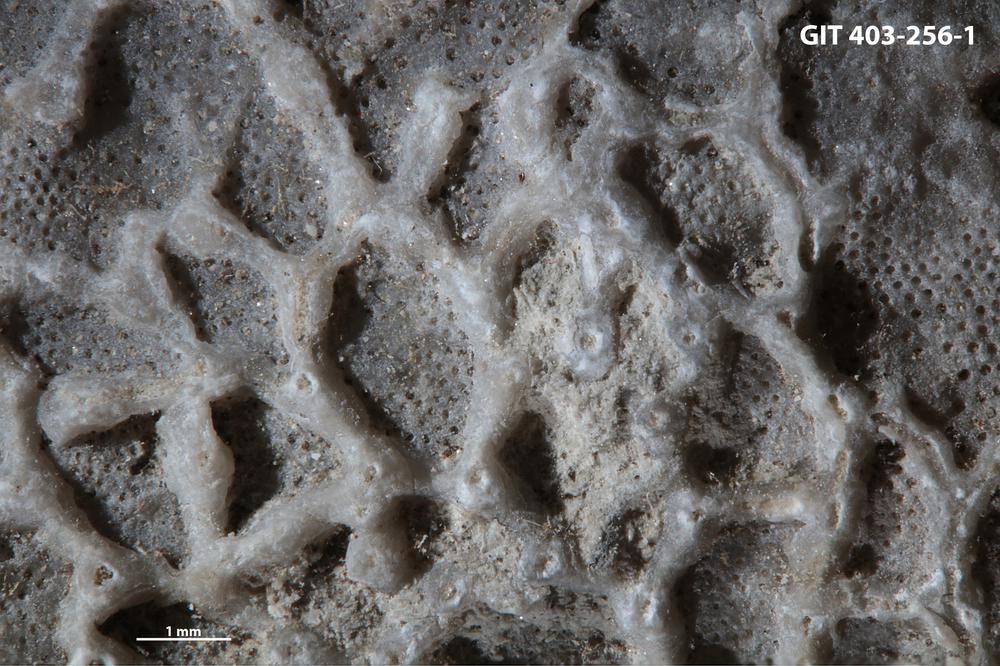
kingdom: Animalia
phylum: Cnidaria
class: Anthozoa
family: Auloporidae
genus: Aulopora
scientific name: Aulopora
